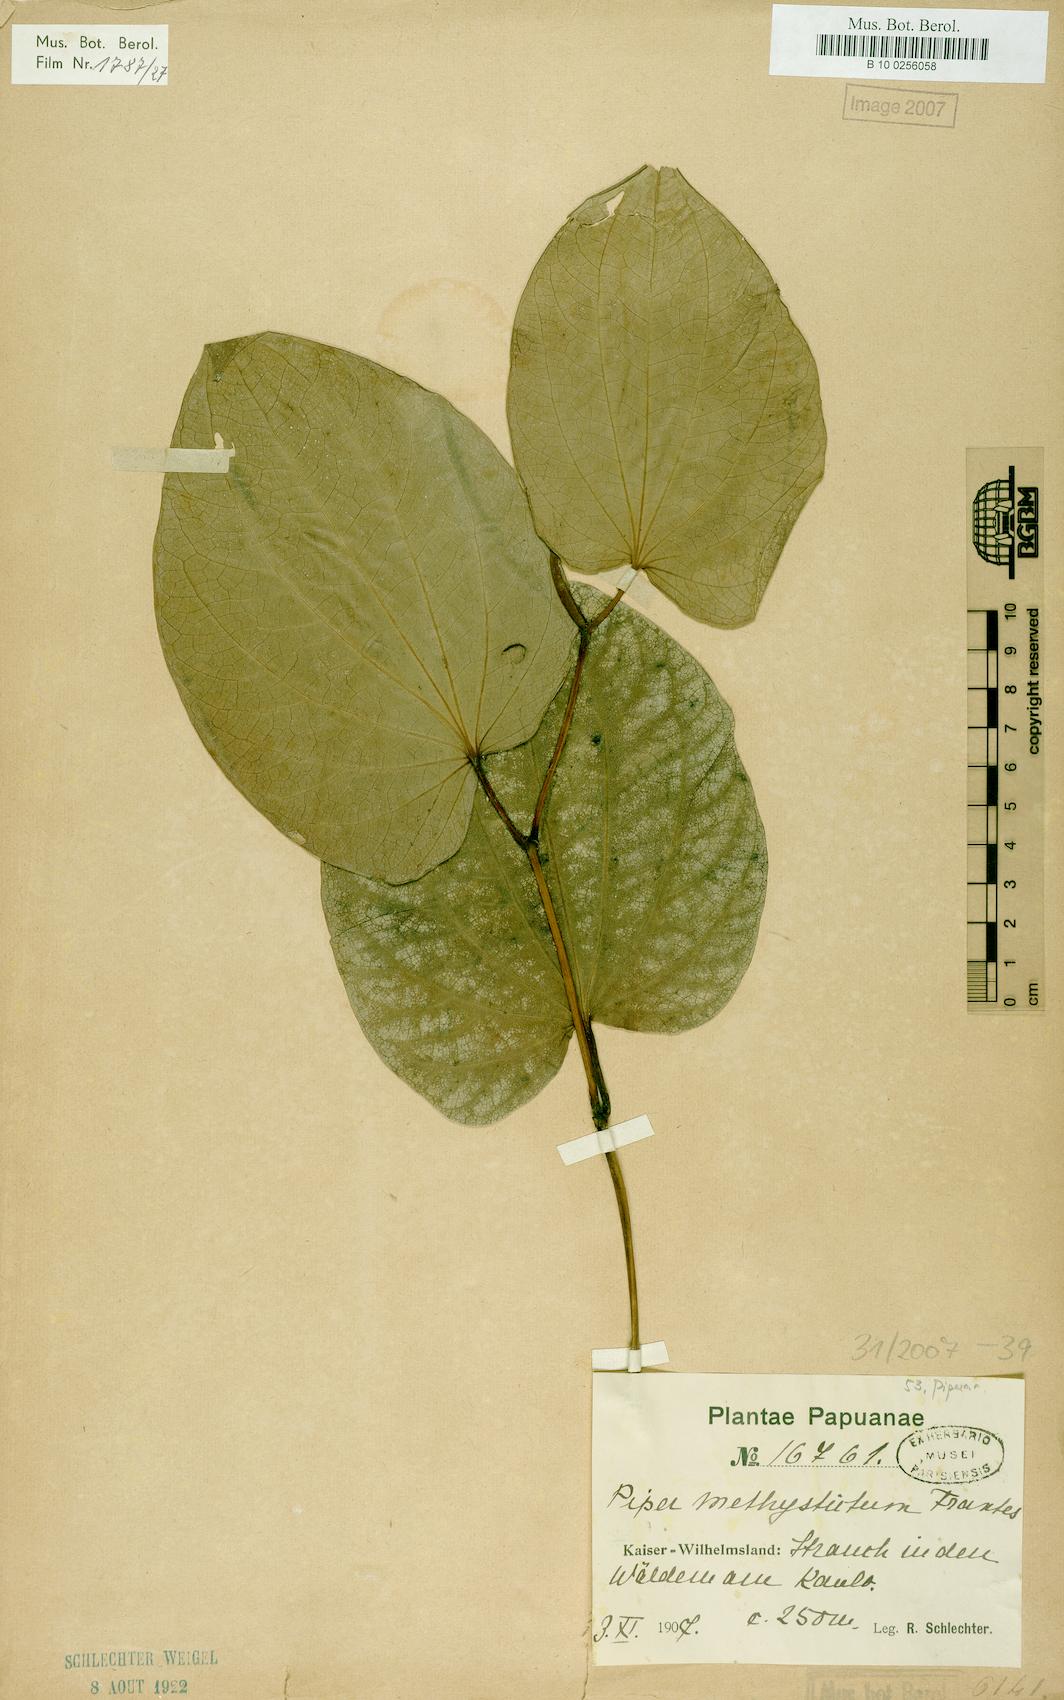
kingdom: Plantae
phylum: Tracheophyta
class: Magnoliopsida
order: Piperales
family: Piperaceae
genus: Macropiper
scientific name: Macropiper methysticum
